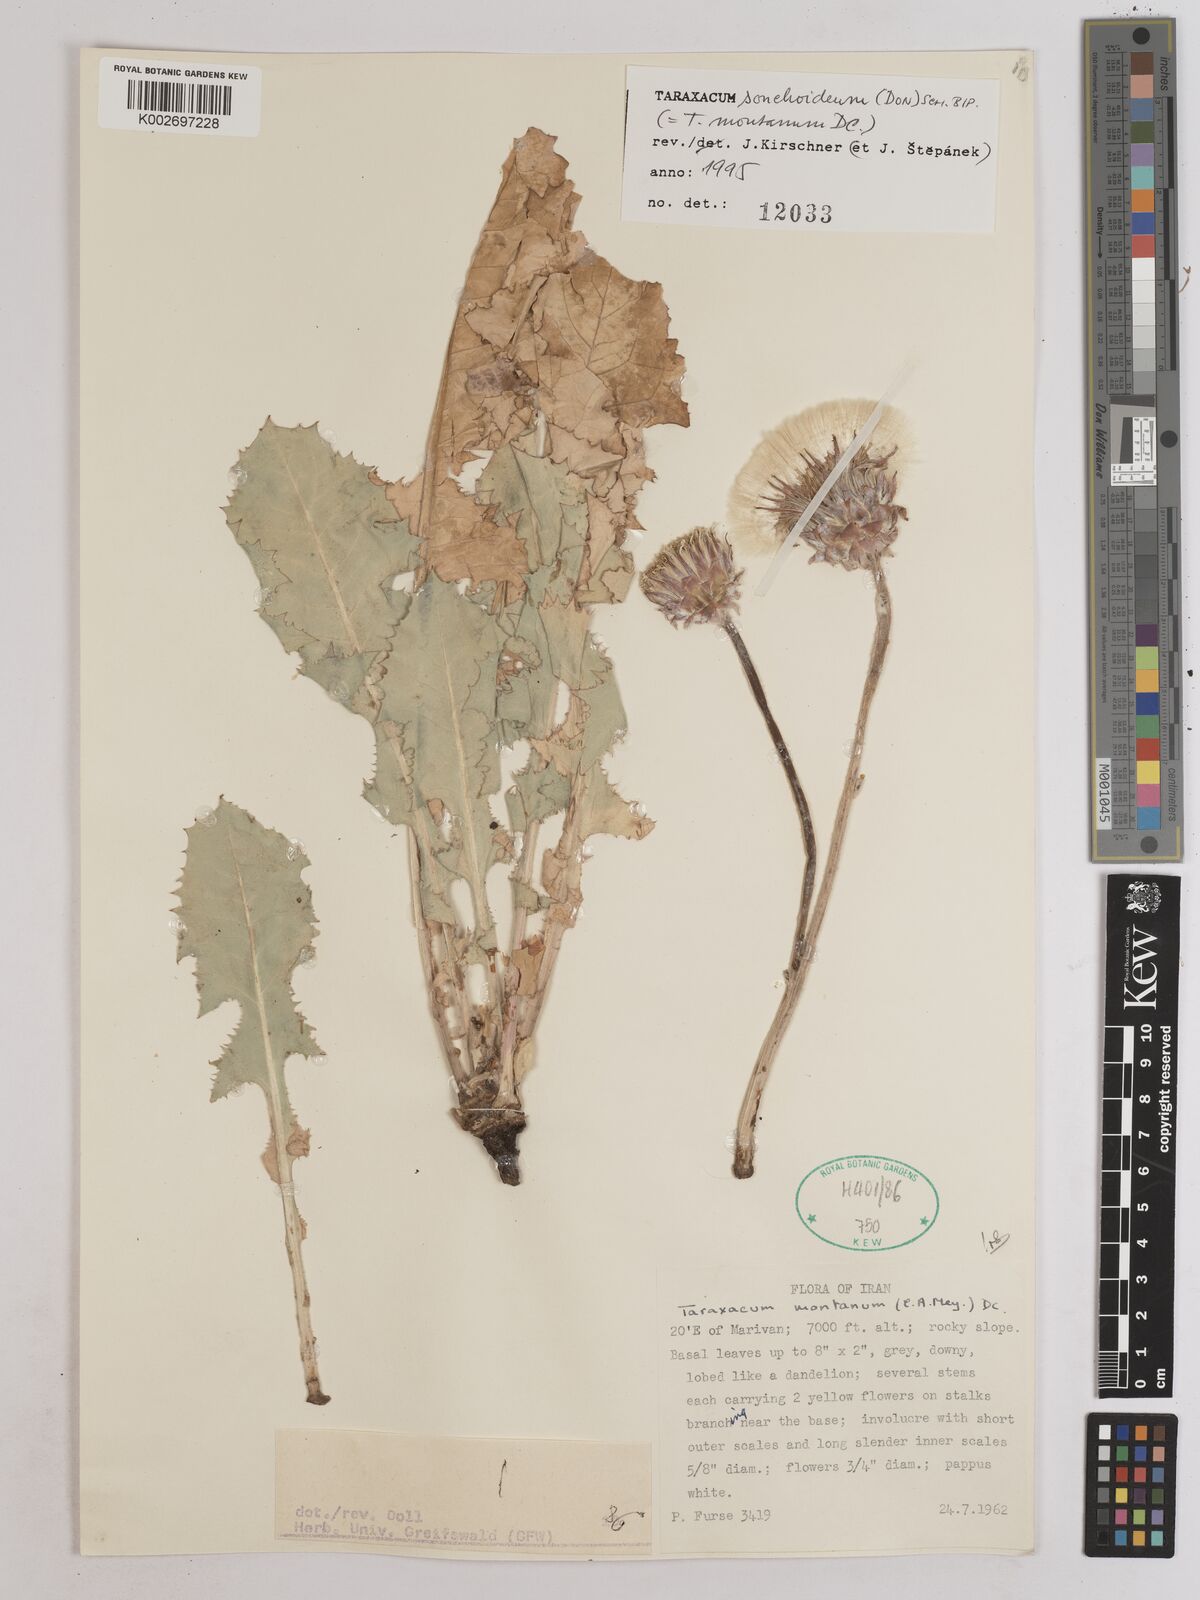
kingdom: Plantae
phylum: Tracheophyta
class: Magnoliopsida
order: Asterales
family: Asteraceae
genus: Taraxacum
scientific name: Taraxacum sonchoides
